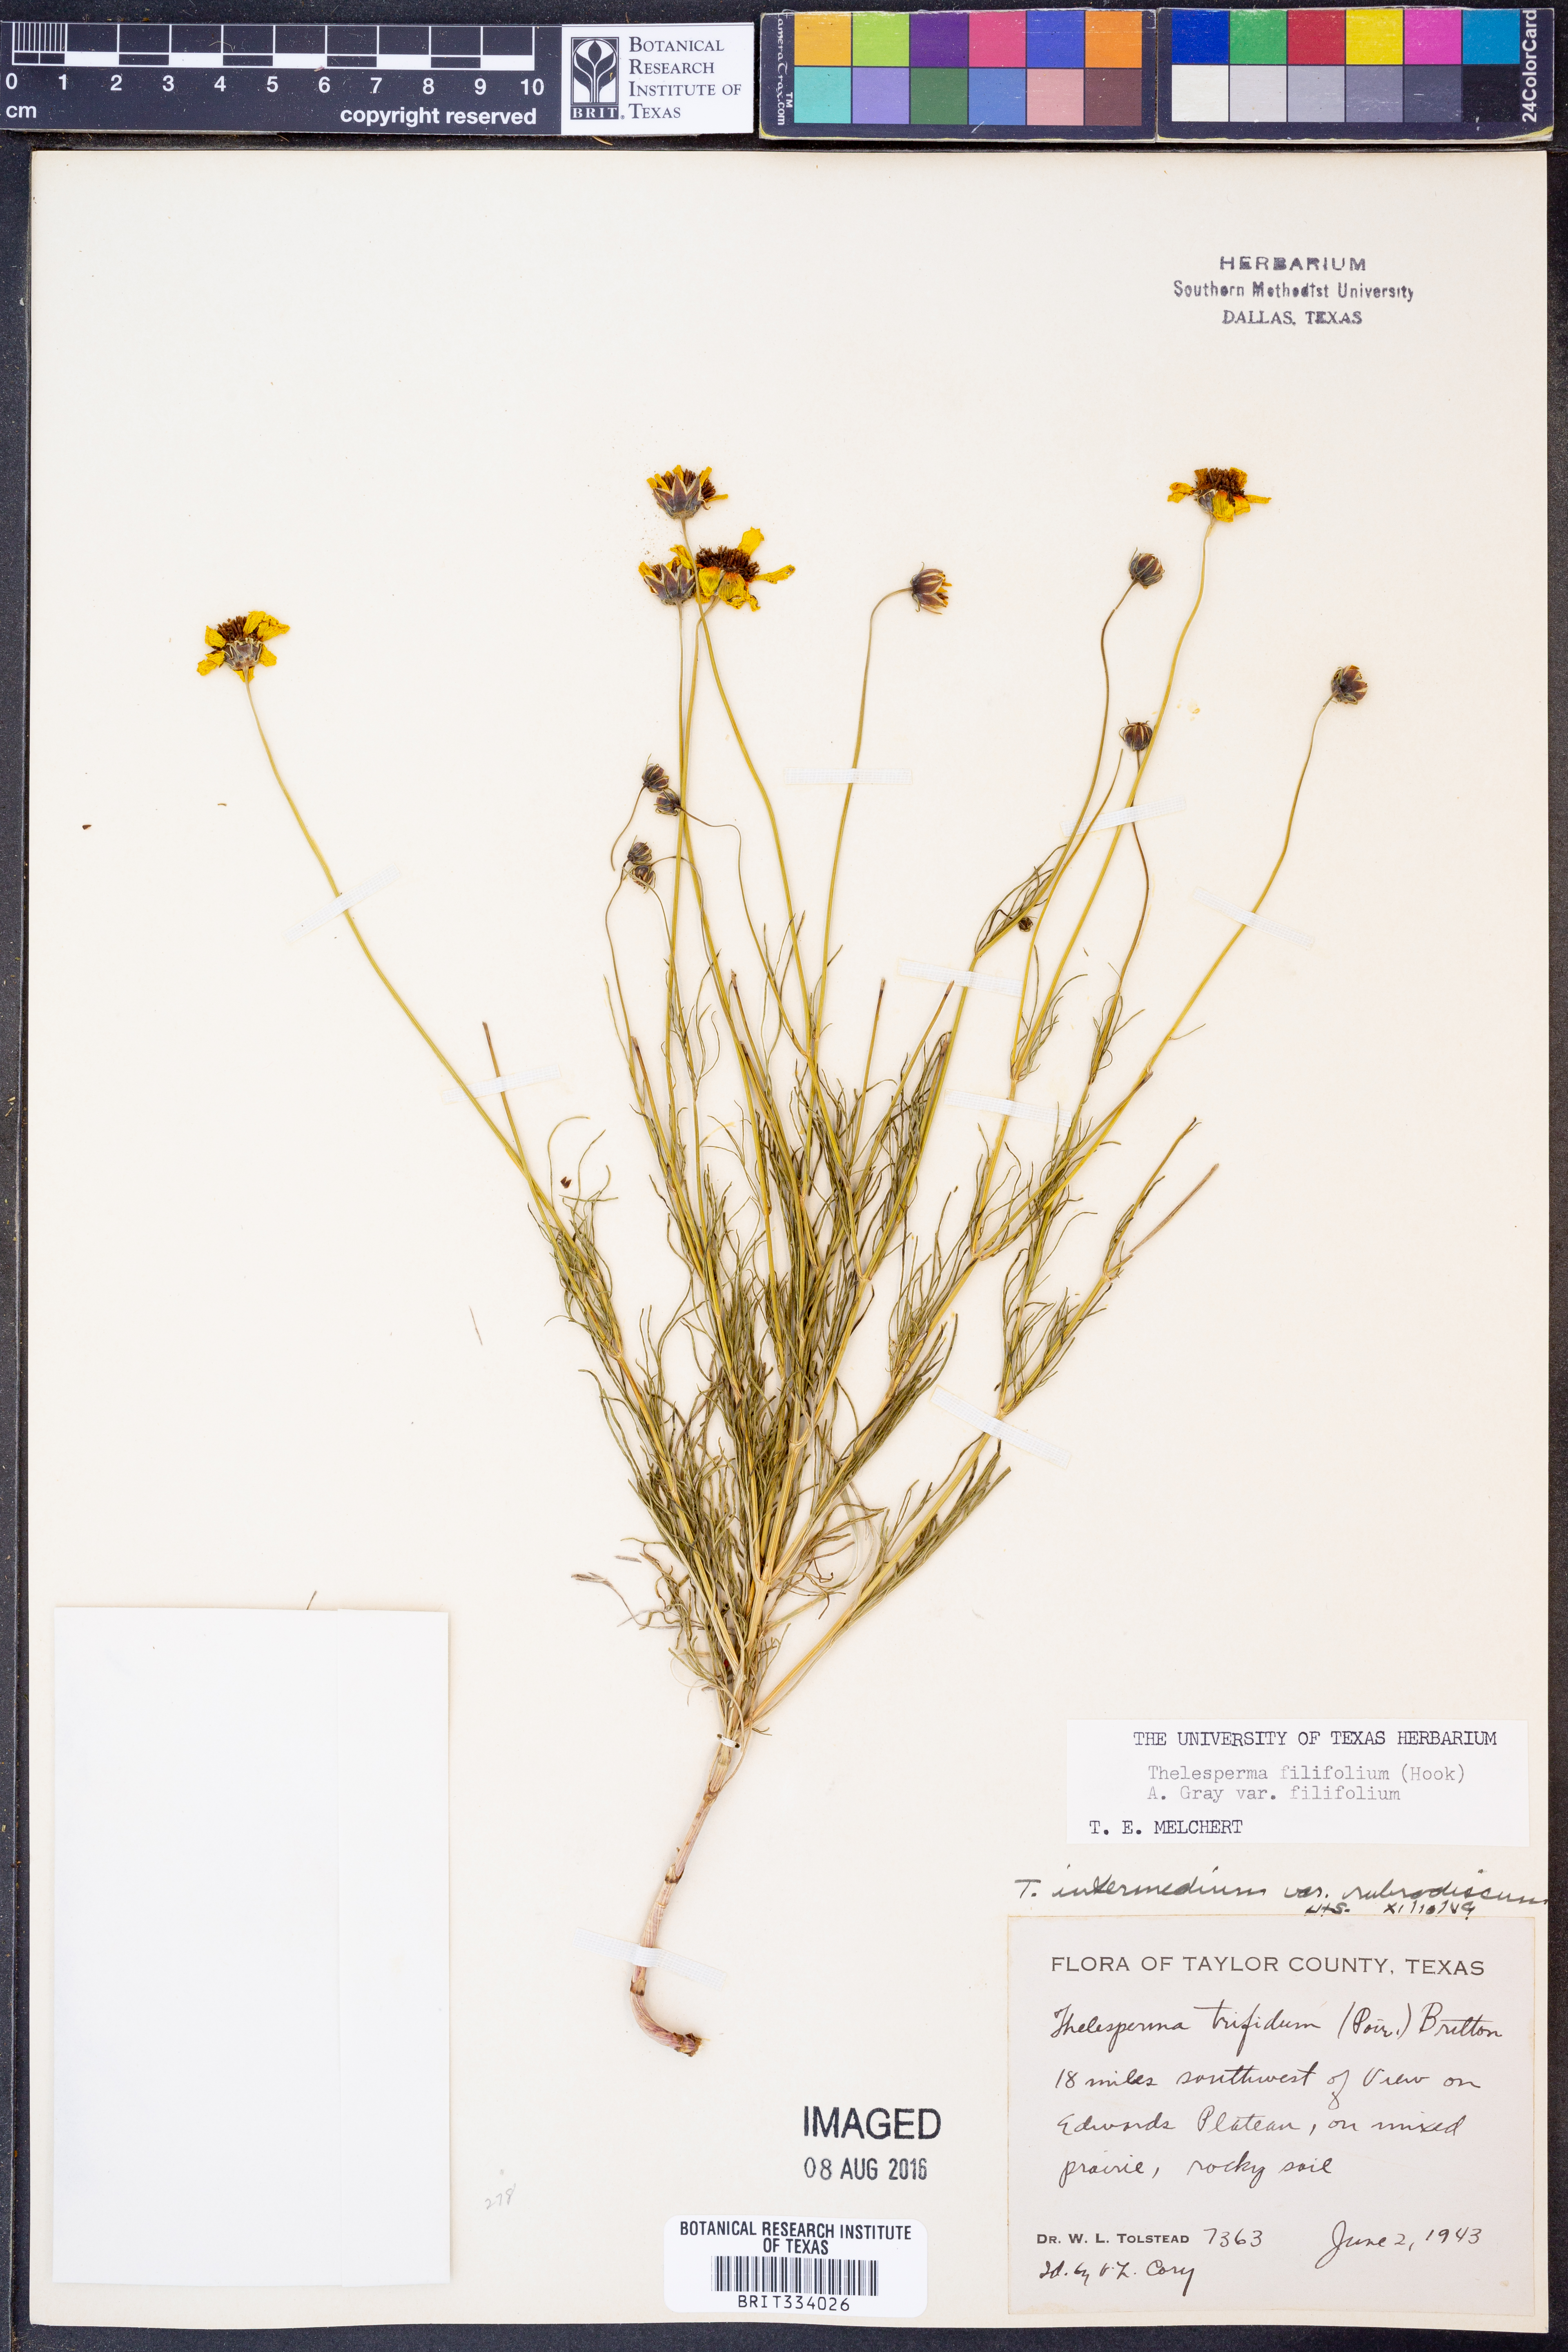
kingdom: Plantae
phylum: Tracheophyta
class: Magnoliopsida
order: Asterales
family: Asteraceae
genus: Thelesperma
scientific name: Thelesperma filifolium
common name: Stiff greenthread
